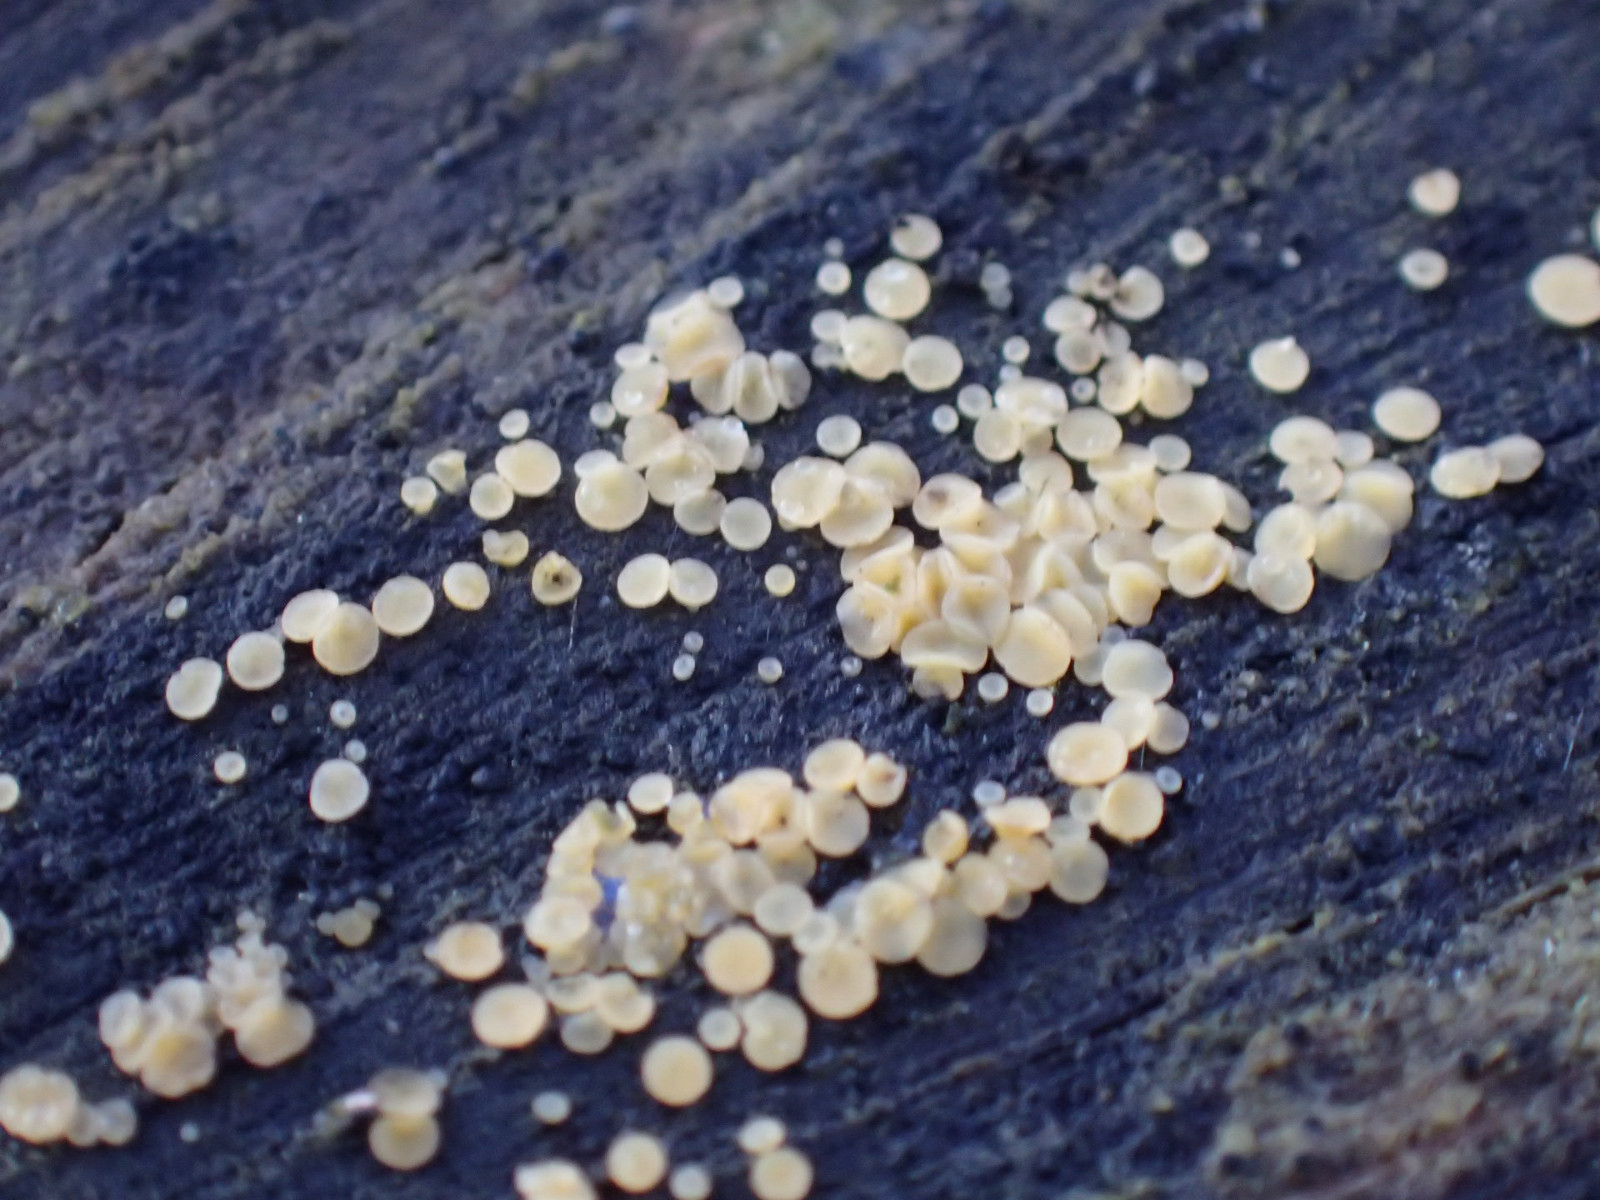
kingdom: Fungi
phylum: Ascomycota
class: Leotiomycetes
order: Helotiales
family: Helotiaceae
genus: Bisporella
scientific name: Bisporella
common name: snitskive
